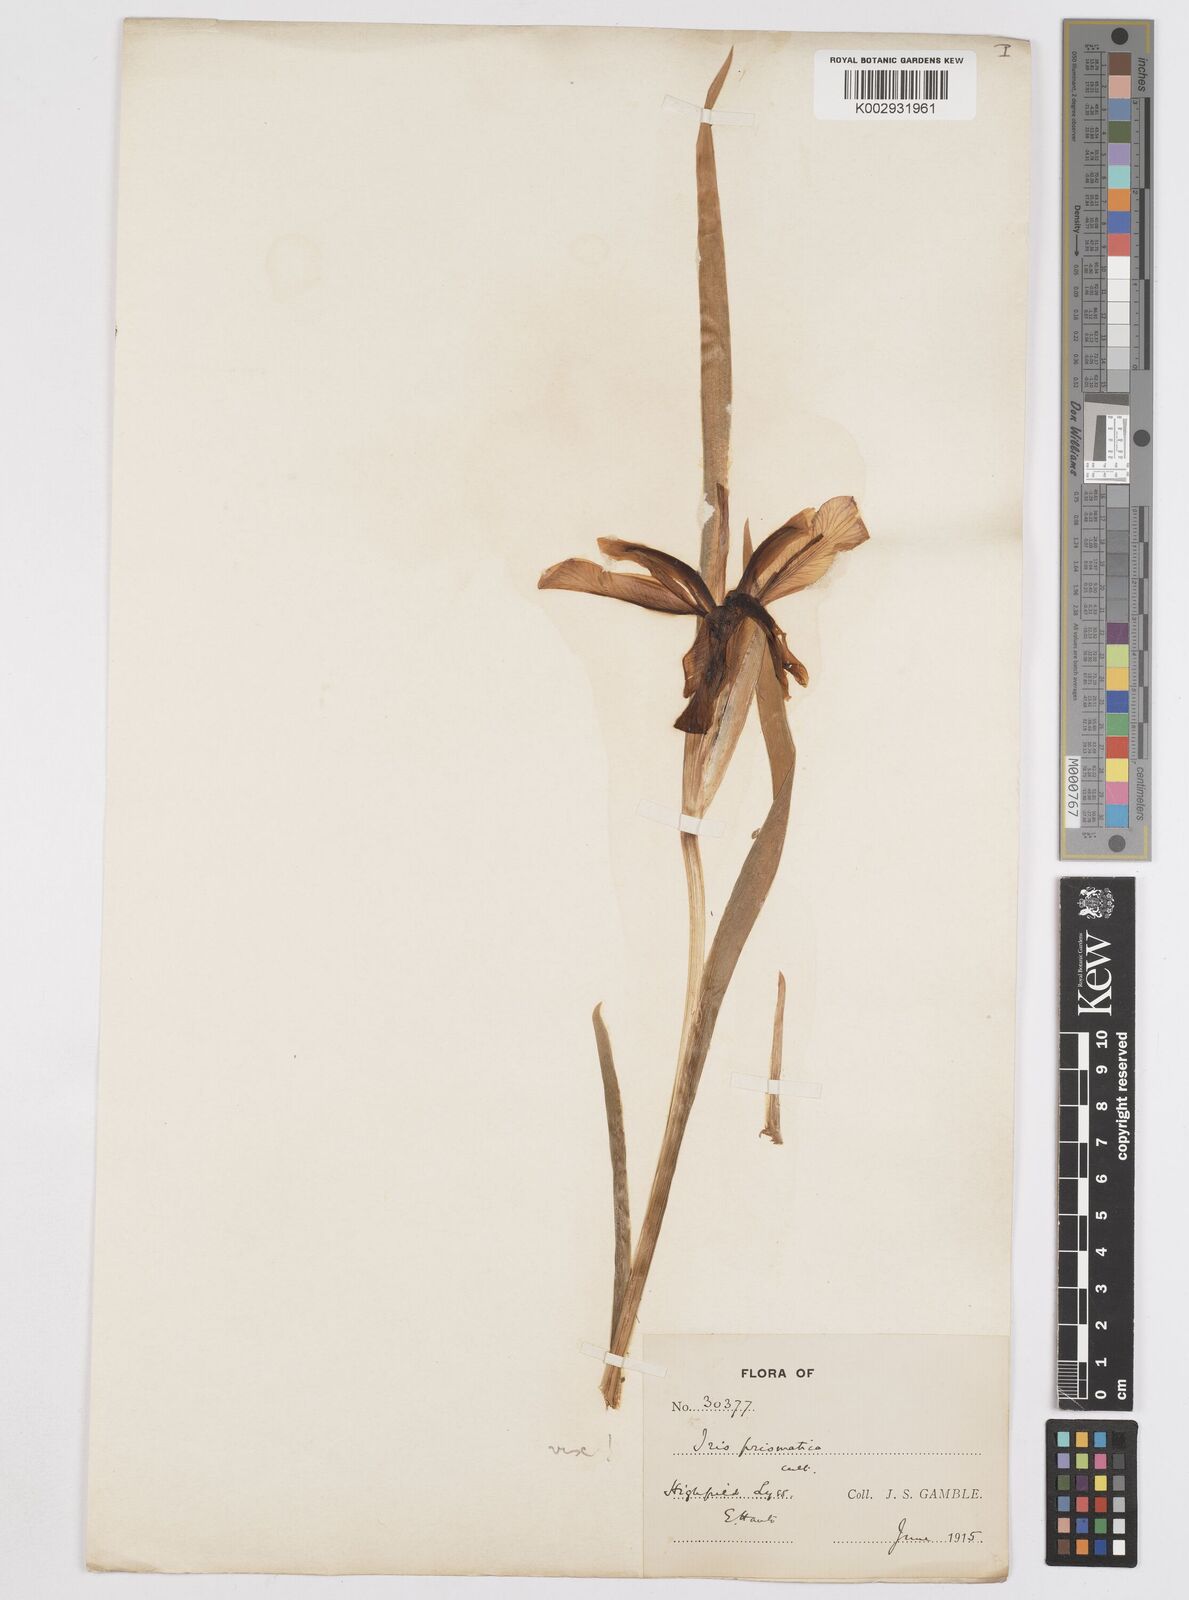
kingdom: Plantae
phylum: Tracheophyta
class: Liliopsida
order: Asparagales
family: Iridaceae
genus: Iris
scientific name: Iris brevicaulis
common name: Zigzag iris
